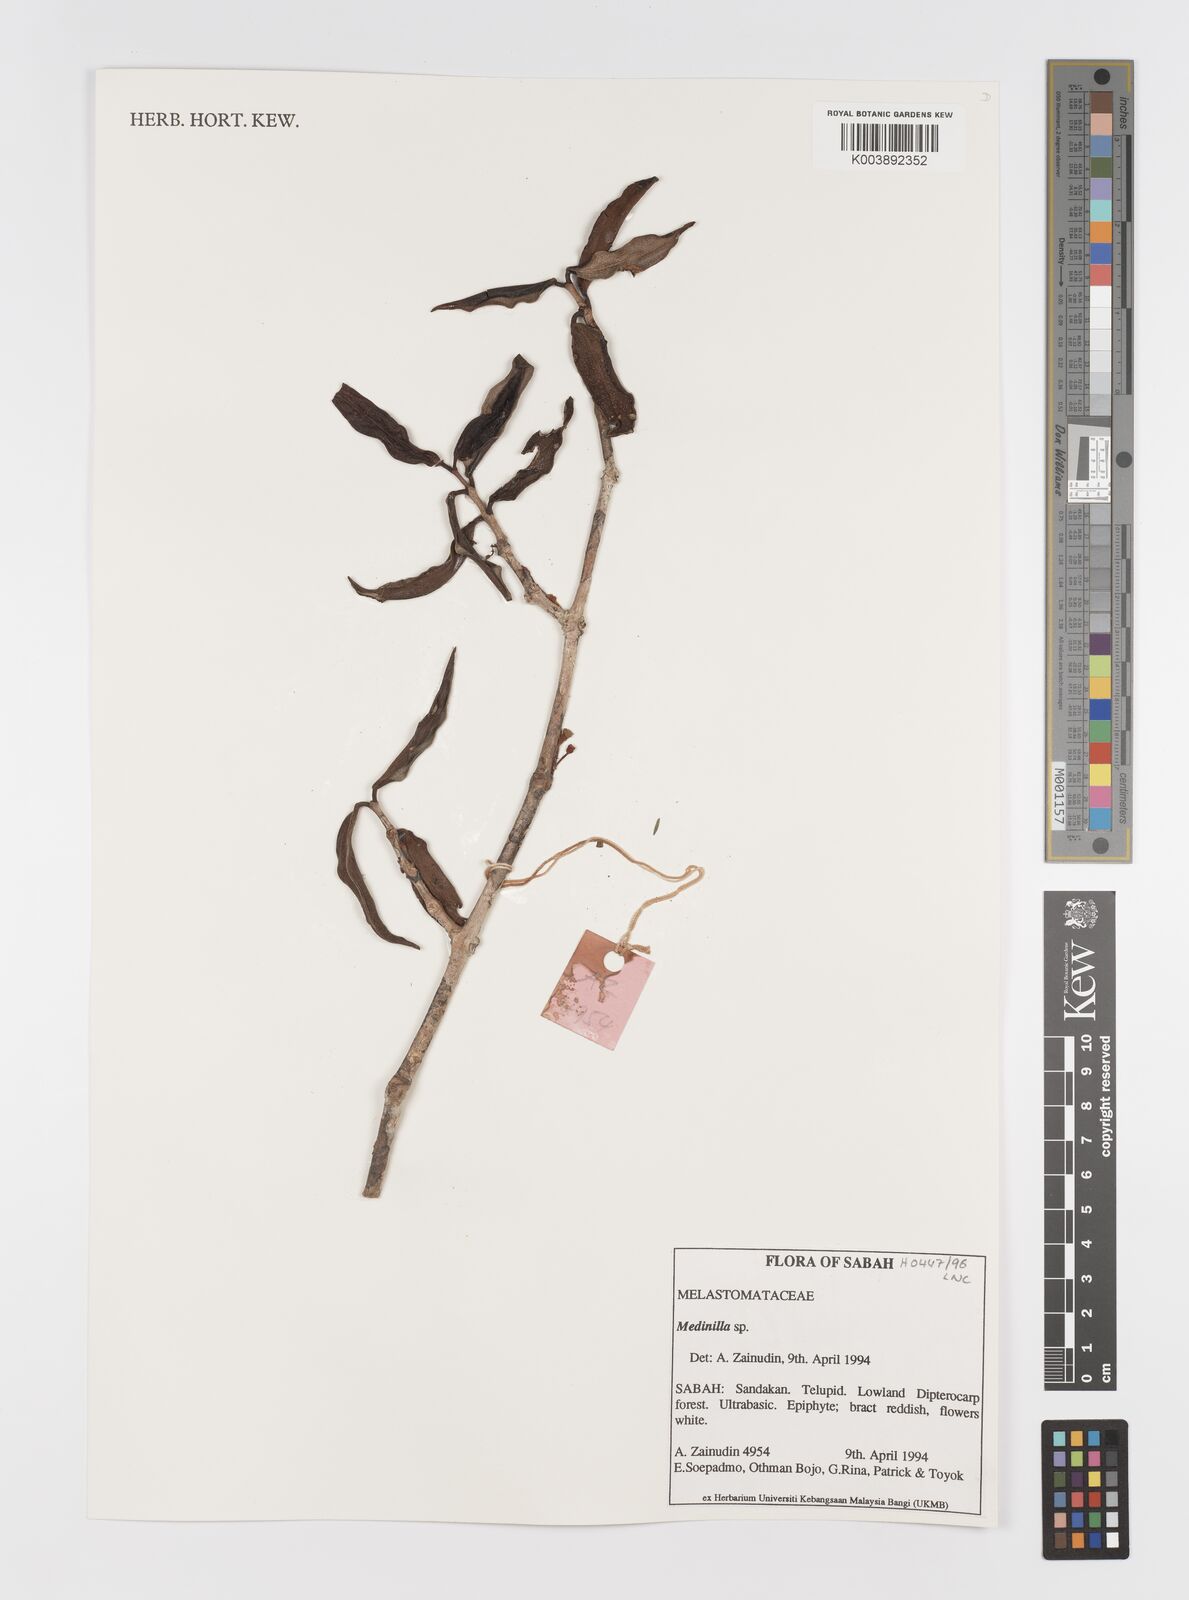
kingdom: Plantae
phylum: Tracheophyta
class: Magnoliopsida
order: Myrtales
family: Melastomataceae
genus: Medinilla
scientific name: Medinilla
